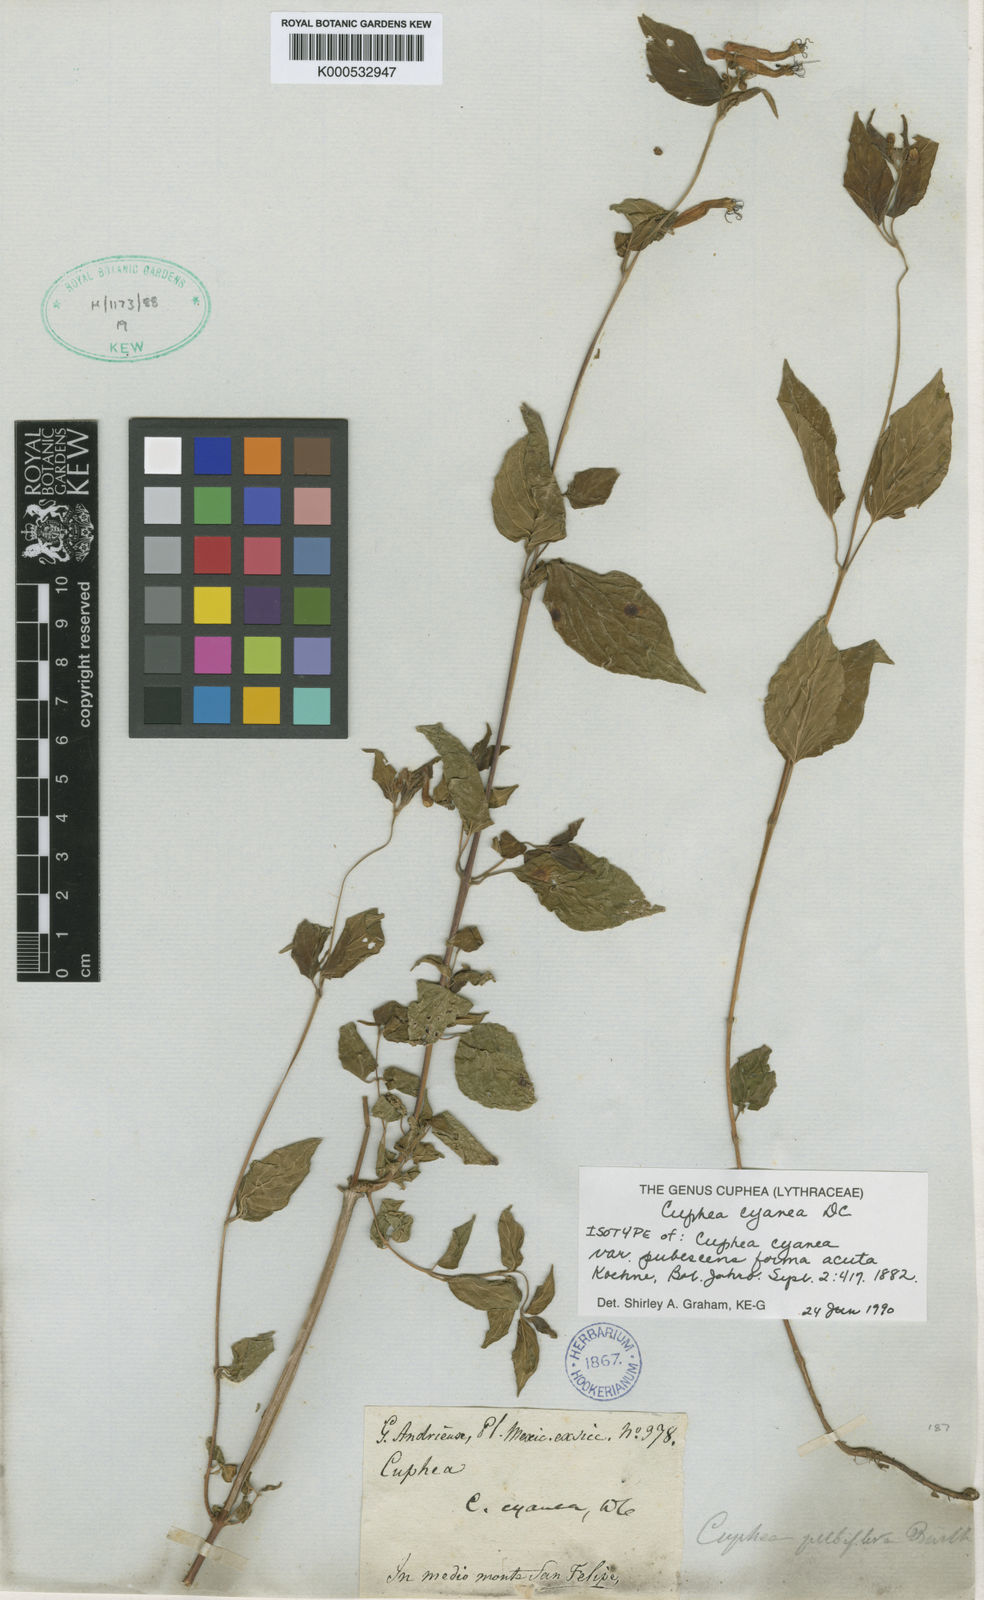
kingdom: Plantae
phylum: Tracheophyta
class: Magnoliopsida
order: Myrtales
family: Lythraceae
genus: Cuphea
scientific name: Cuphea cyanea
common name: Black-eyed cuphea
